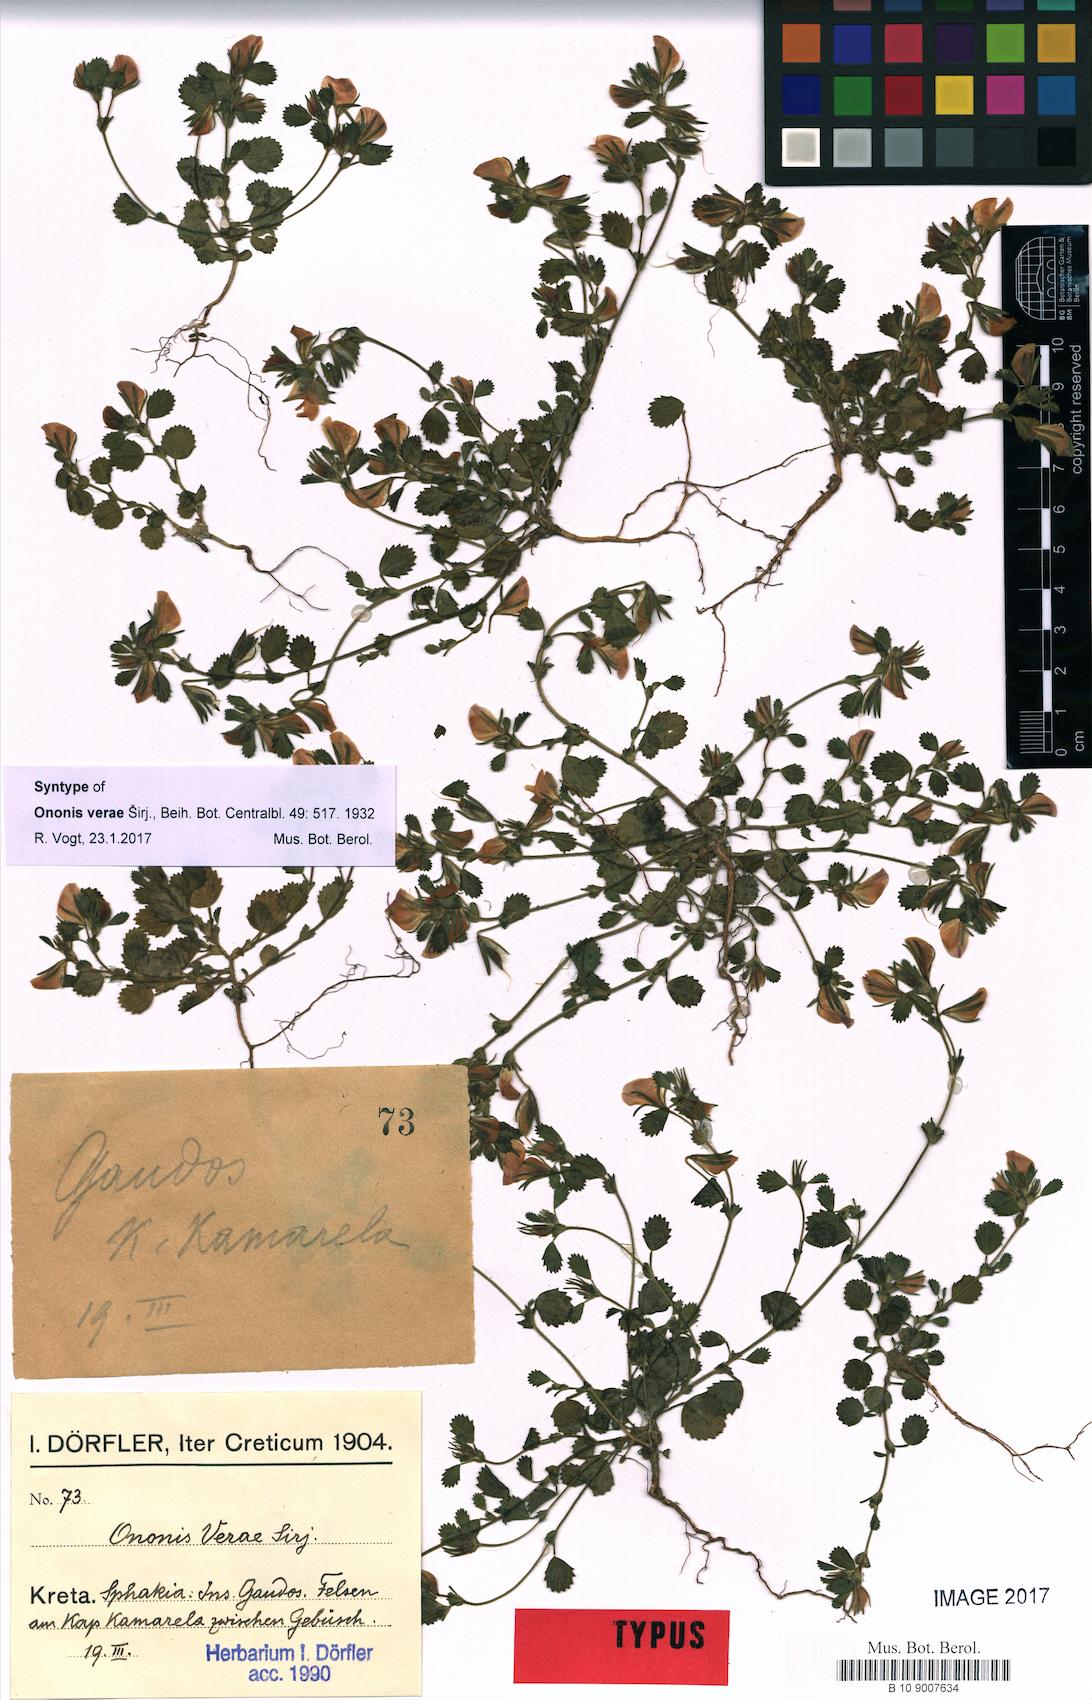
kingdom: Plantae
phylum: Tracheophyta
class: Magnoliopsida
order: Fabales
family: Fabaceae
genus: Ononis
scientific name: Ononis verae
